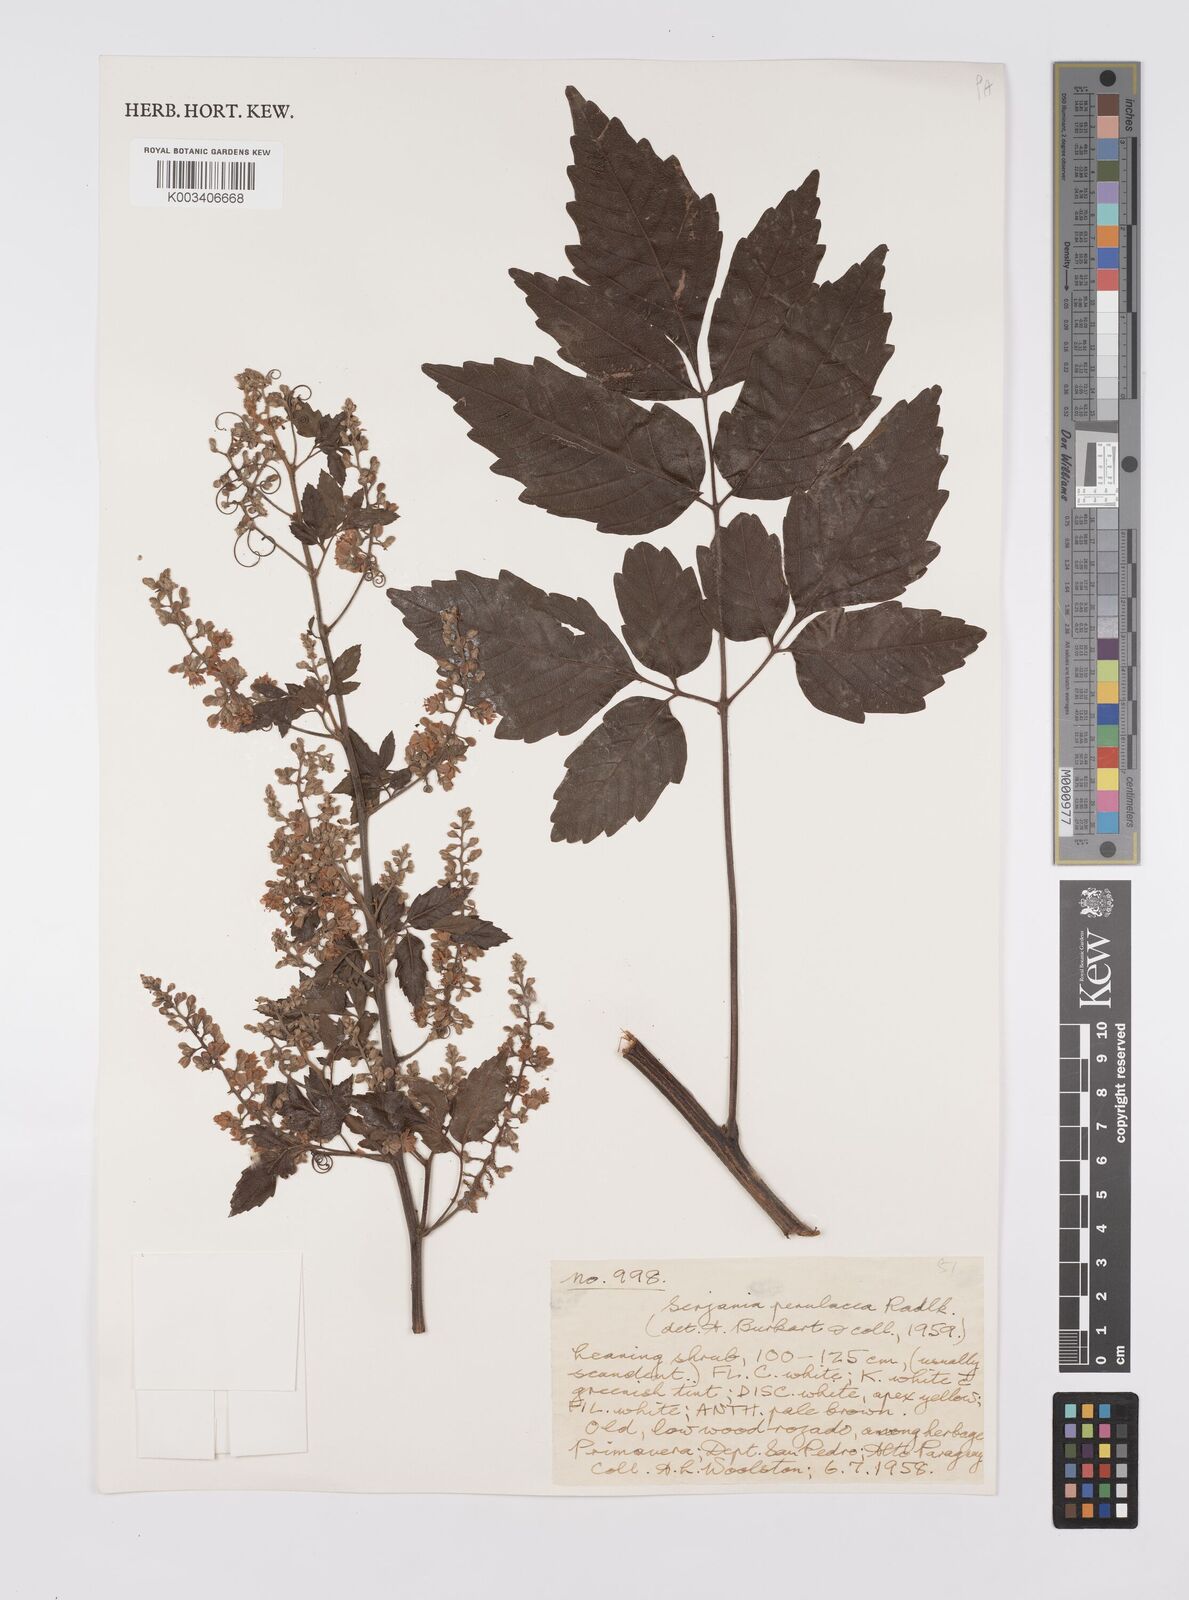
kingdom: Plantae
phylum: Tracheophyta
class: Magnoliopsida
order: Sapindales
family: Sapindaceae
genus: Serjania
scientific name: Serjania perulacea
